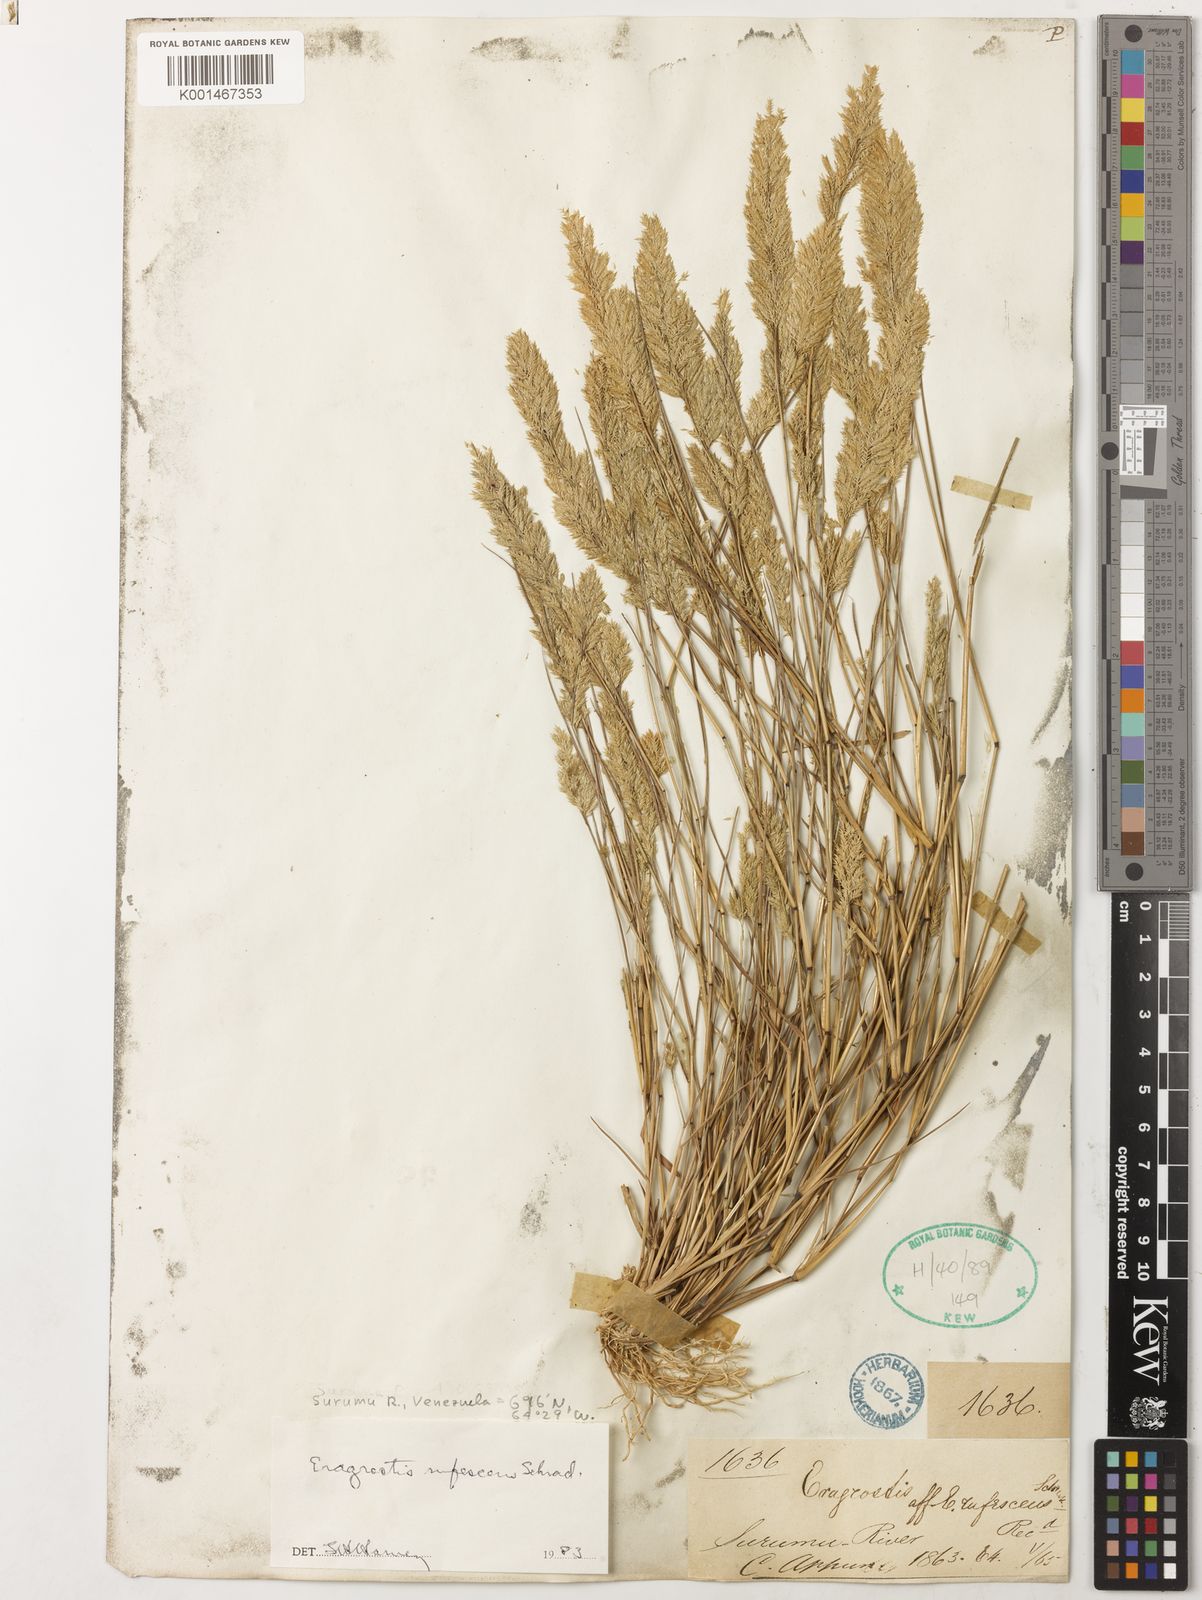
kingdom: Plantae
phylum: Tracheophyta
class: Liliopsida
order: Poales
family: Poaceae
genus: Eragrostis
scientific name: Eragrostis rufescens
